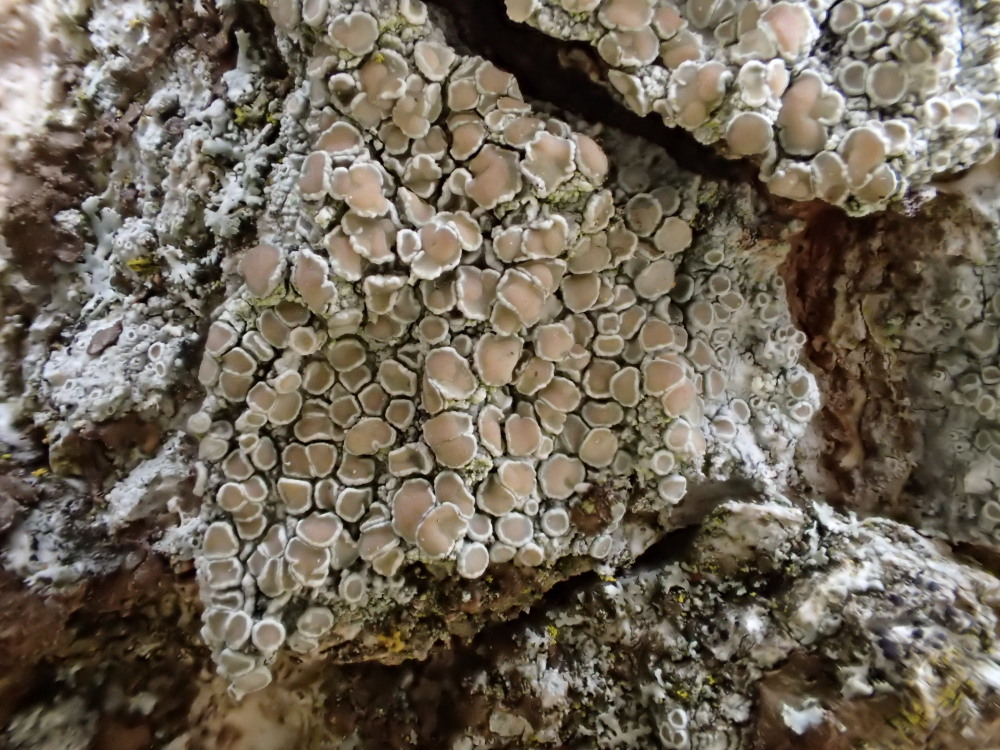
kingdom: Fungi
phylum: Ascomycota
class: Lecanoromycetes
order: Lecanorales
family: Lecanoraceae
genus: Lecanora
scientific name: Lecanora chlarotera
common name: brun kantskivelav
